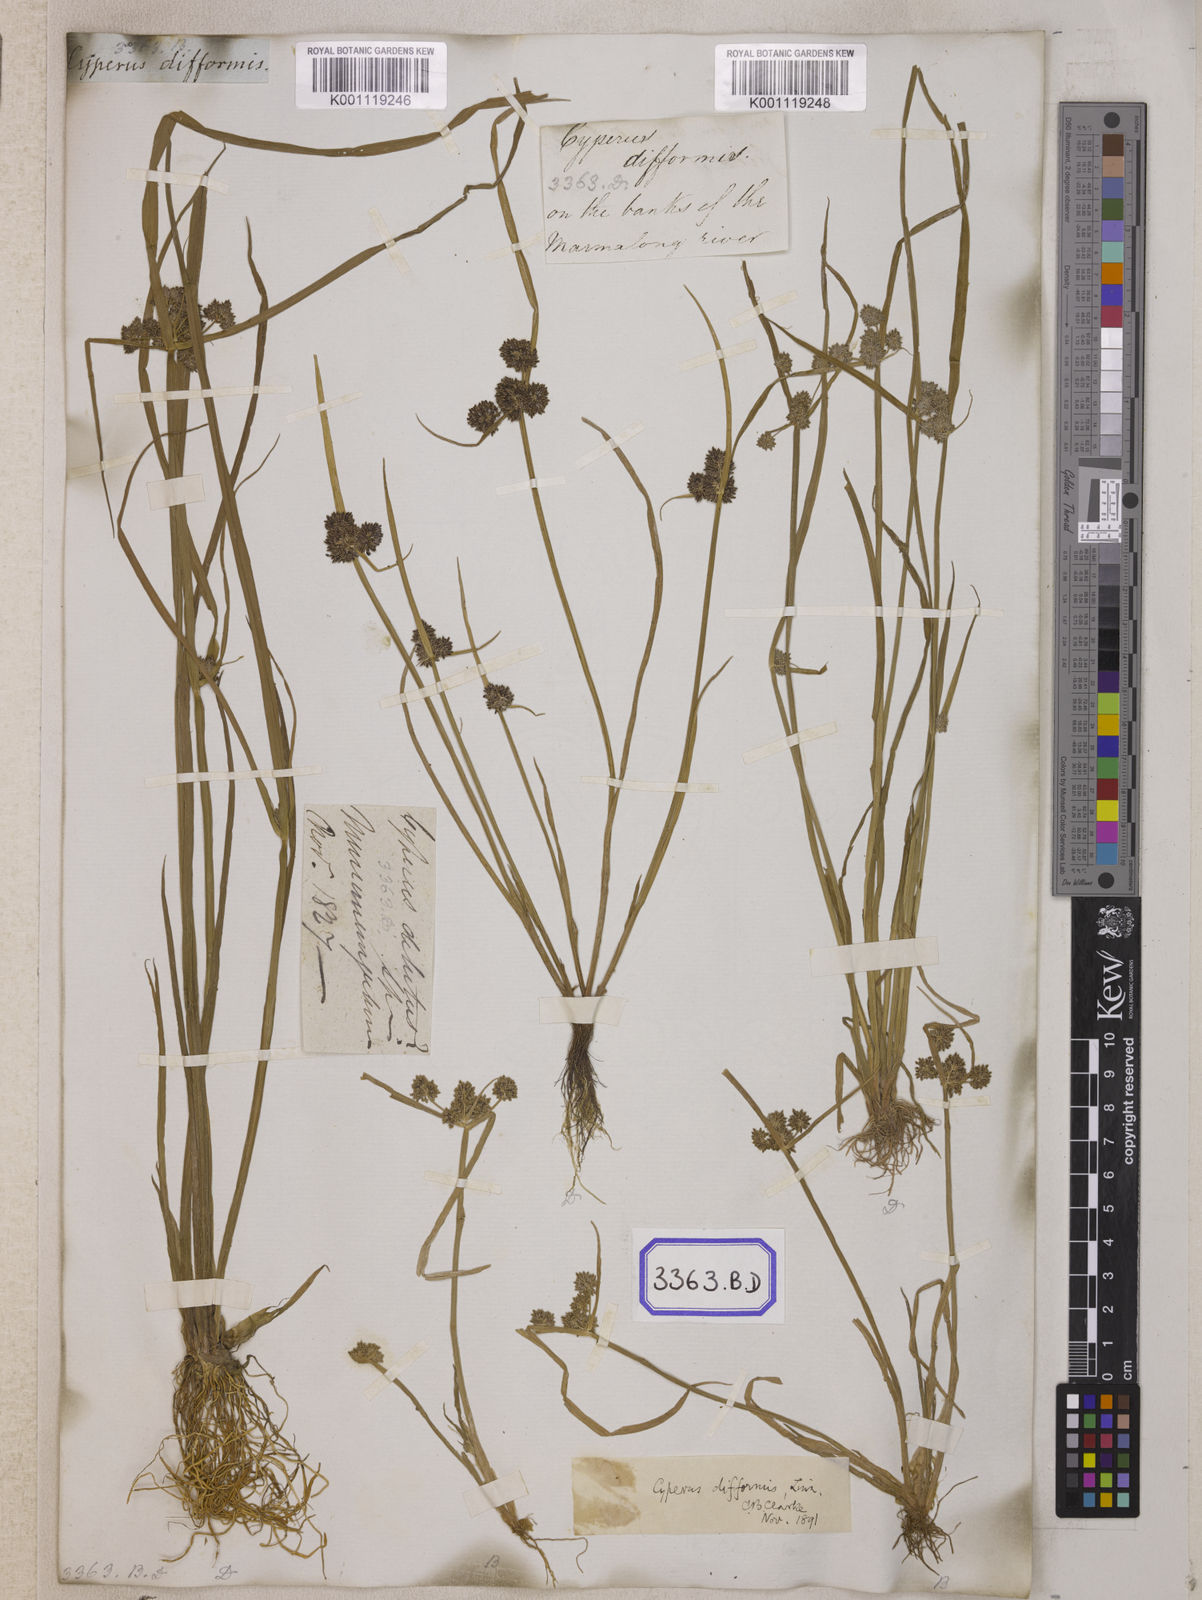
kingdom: Plantae
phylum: Tracheophyta
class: Liliopsida
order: Poales
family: Cyperaceae
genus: Cyperus
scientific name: Cyperus
